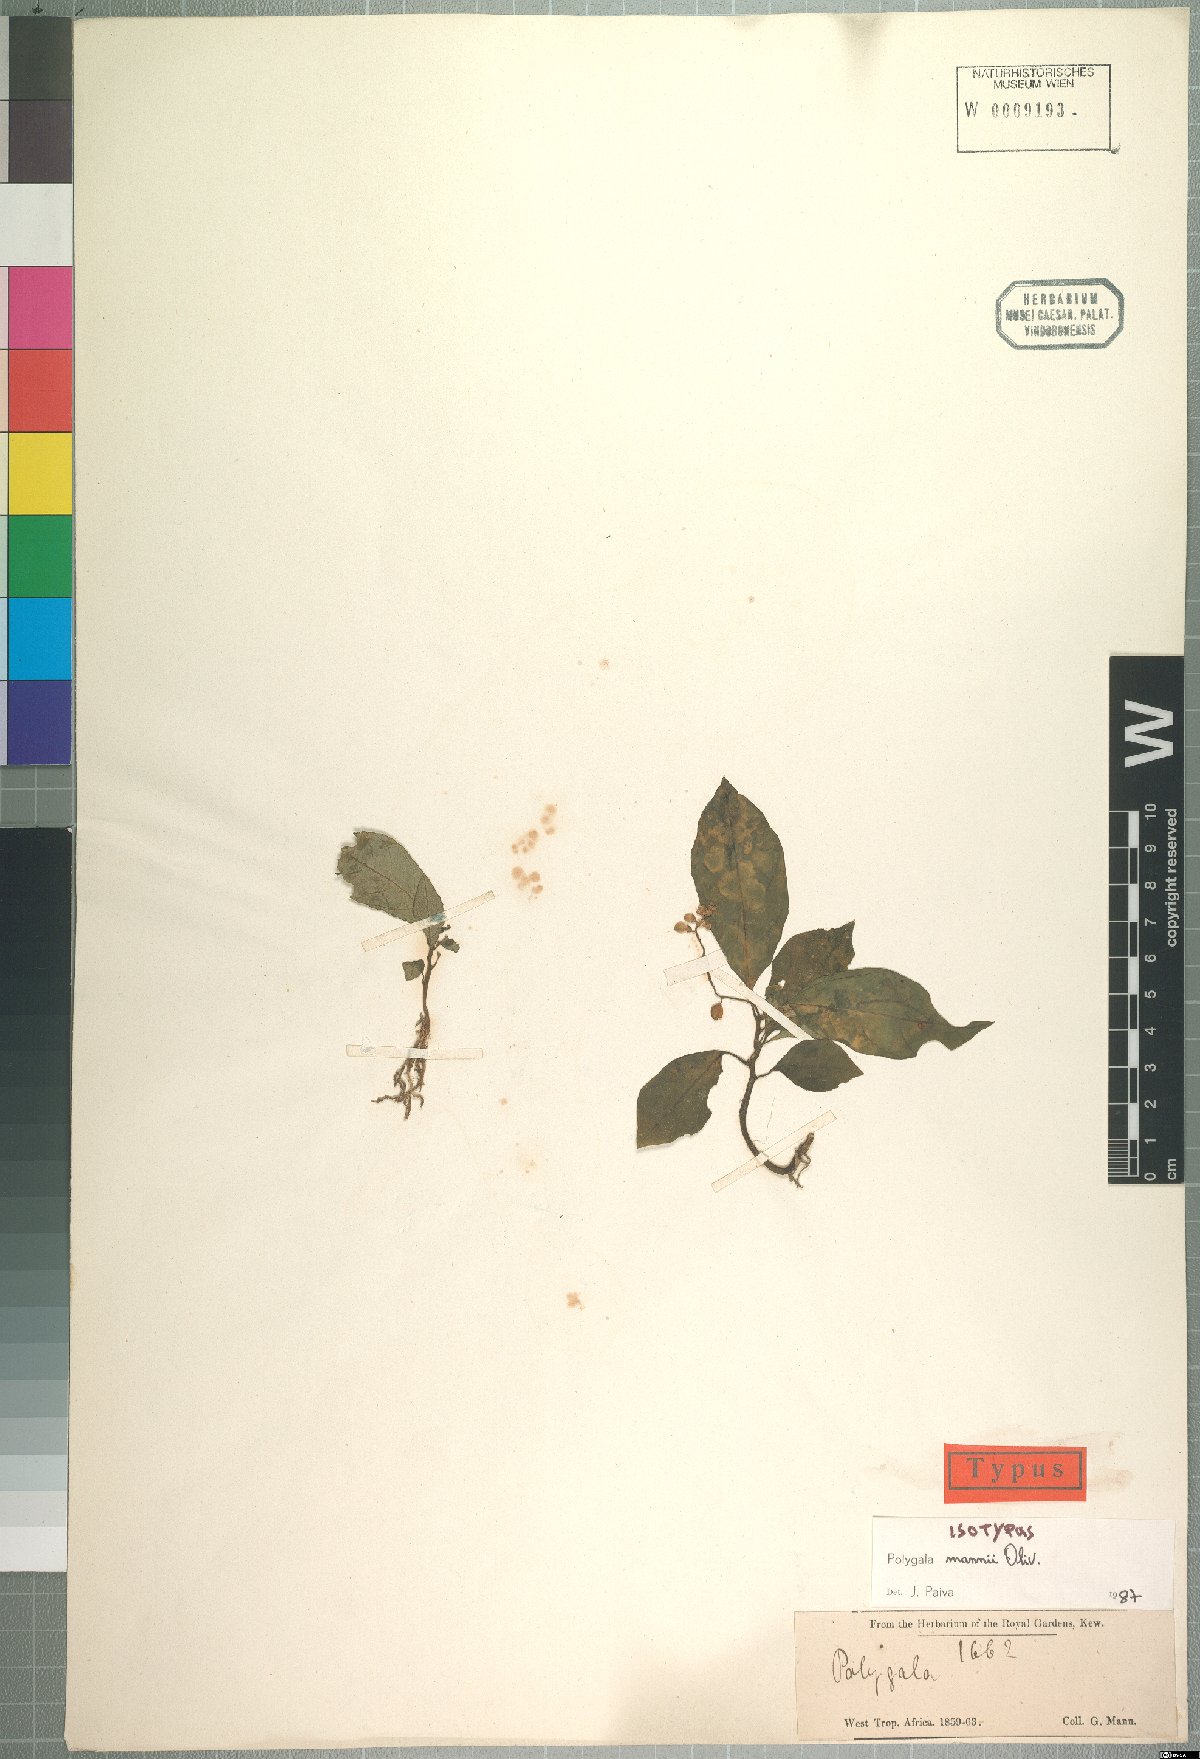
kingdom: Plantae
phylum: Tracheophyta
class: Magnoliopsida
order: Fabales
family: Polygalaceae
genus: Polygala
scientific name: Polygala mannii
